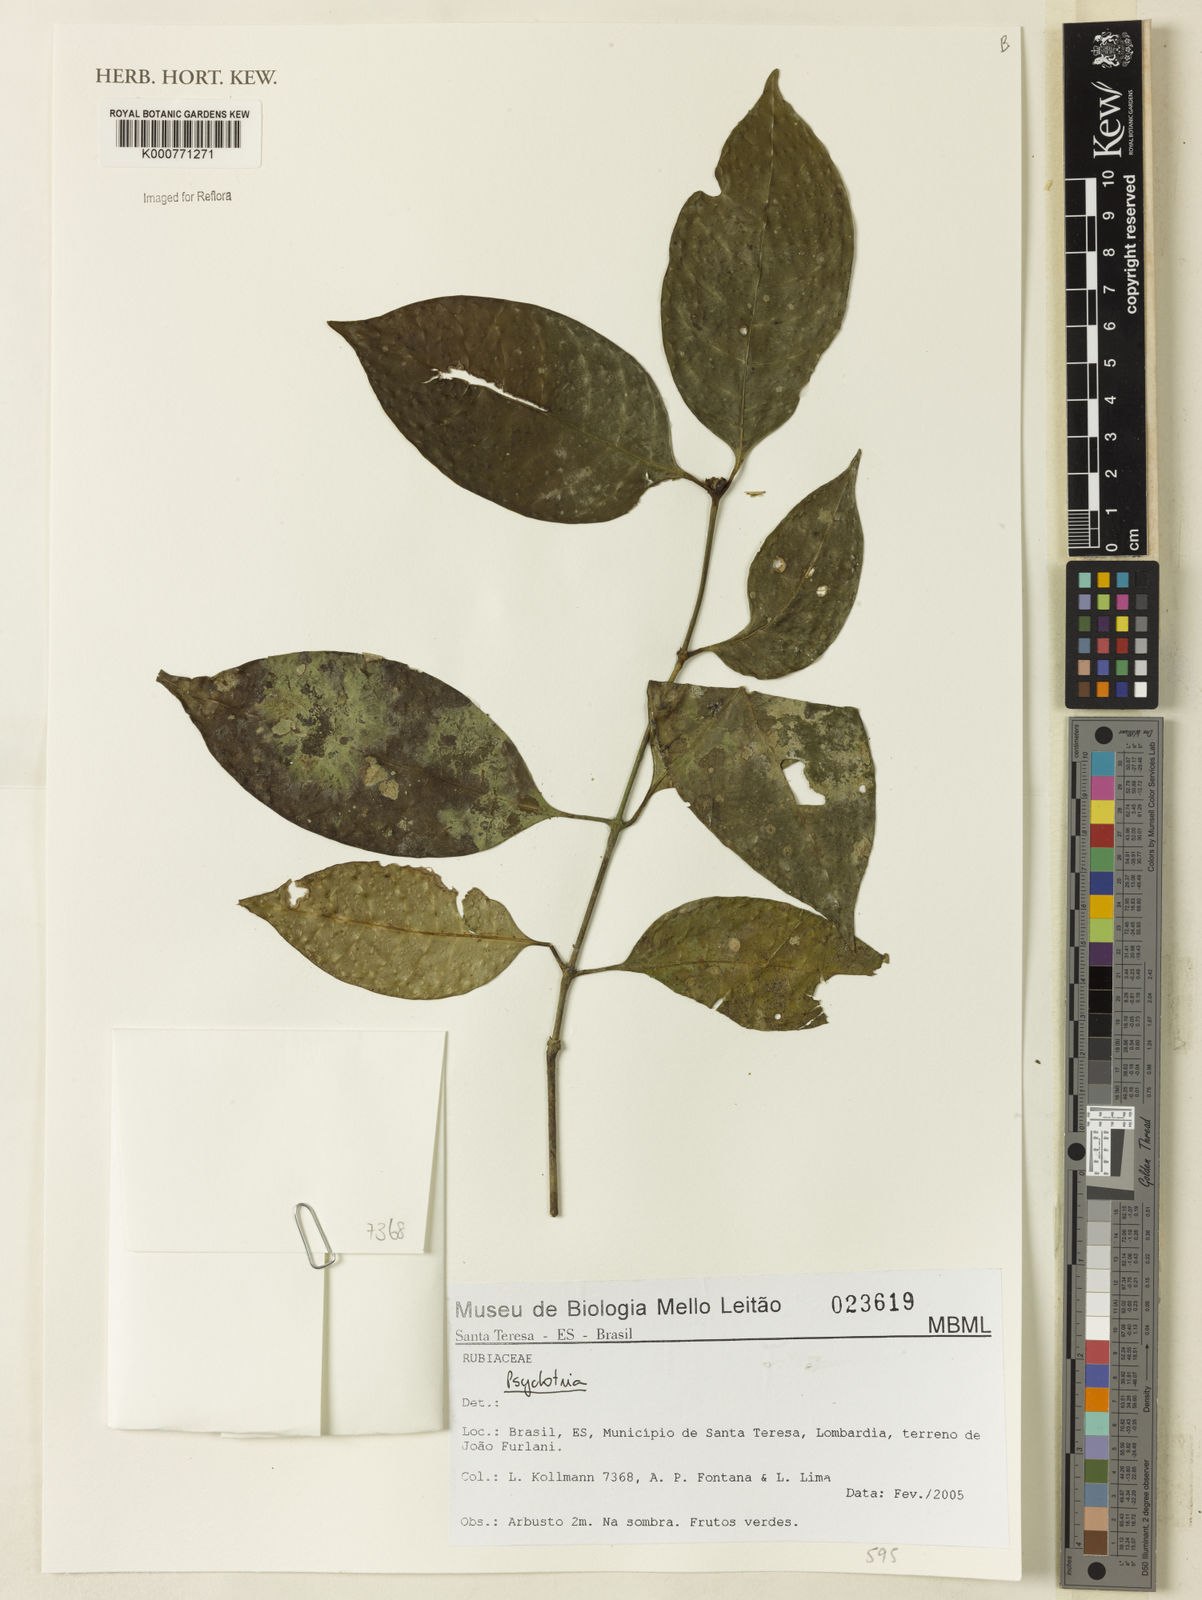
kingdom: Plantae
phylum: Tracheophyta
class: Magnoliopsida
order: Gentianales
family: Rubiaceae
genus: Rudgea
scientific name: Rudgea
